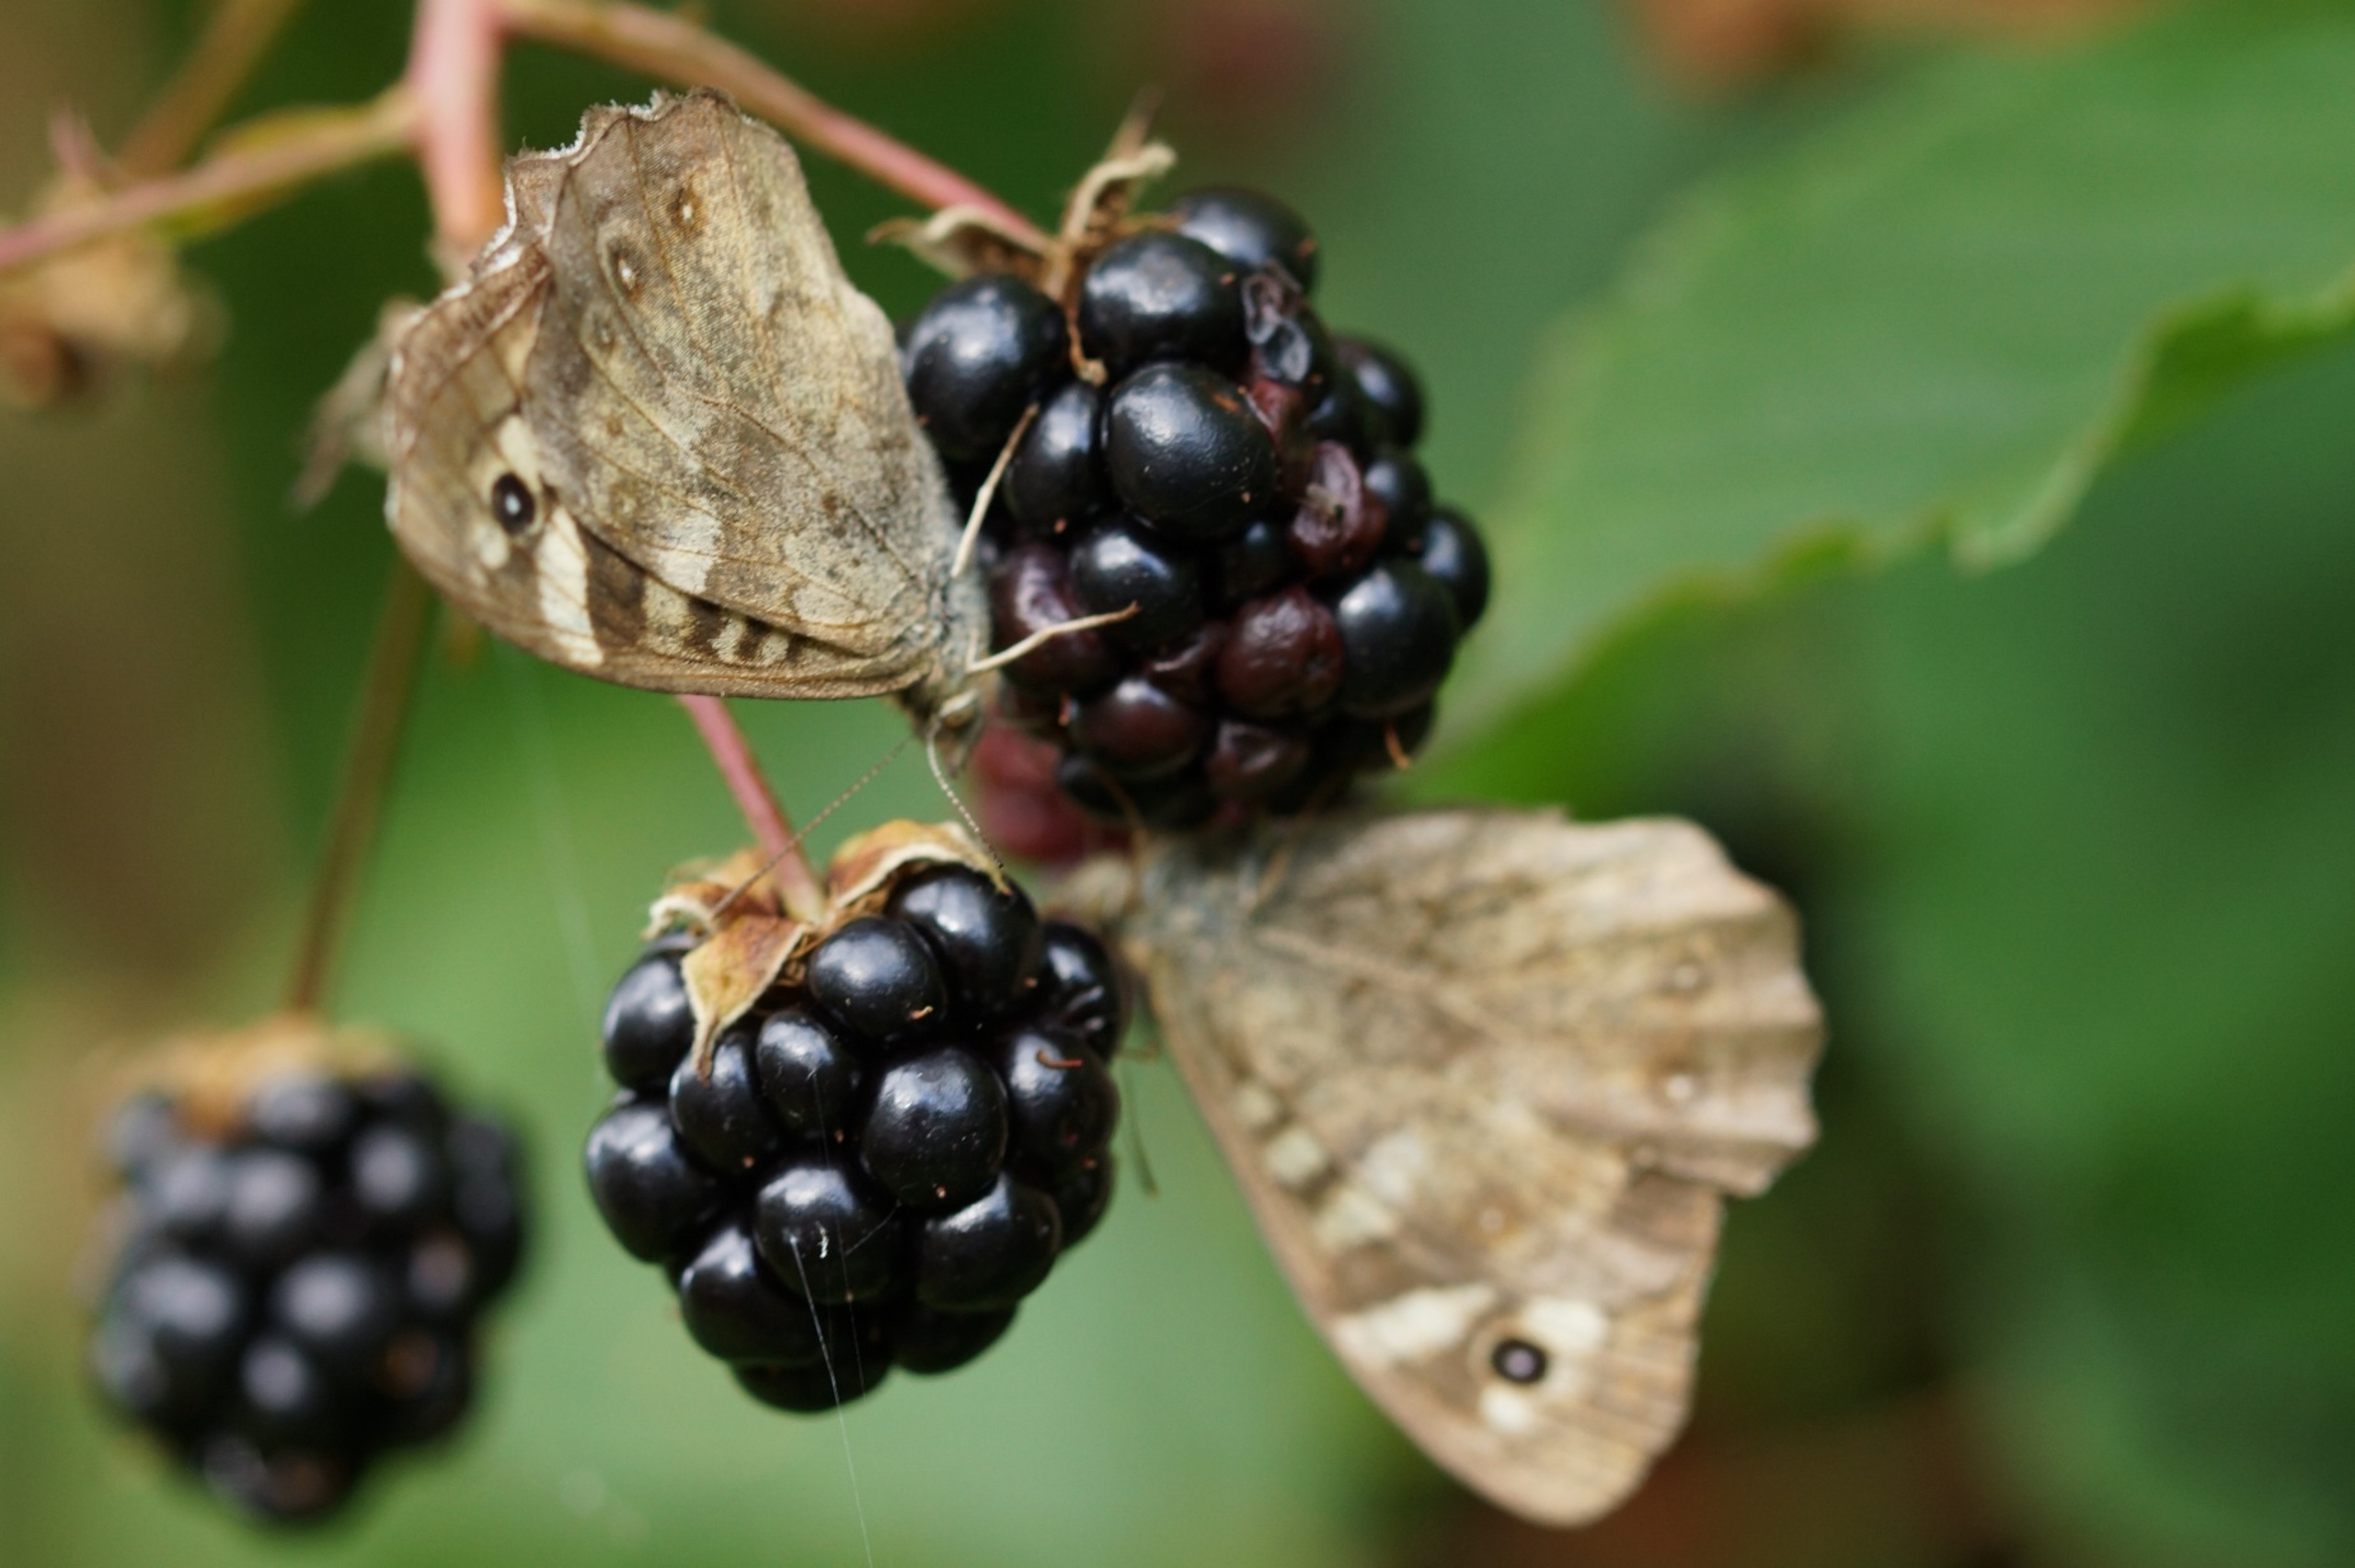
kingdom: Animalia
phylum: Arthropoda
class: Insecta
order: Lepidoptera
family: Nymphalidae
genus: Pararge
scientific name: Pararge aegeria
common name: Skovrandøje
